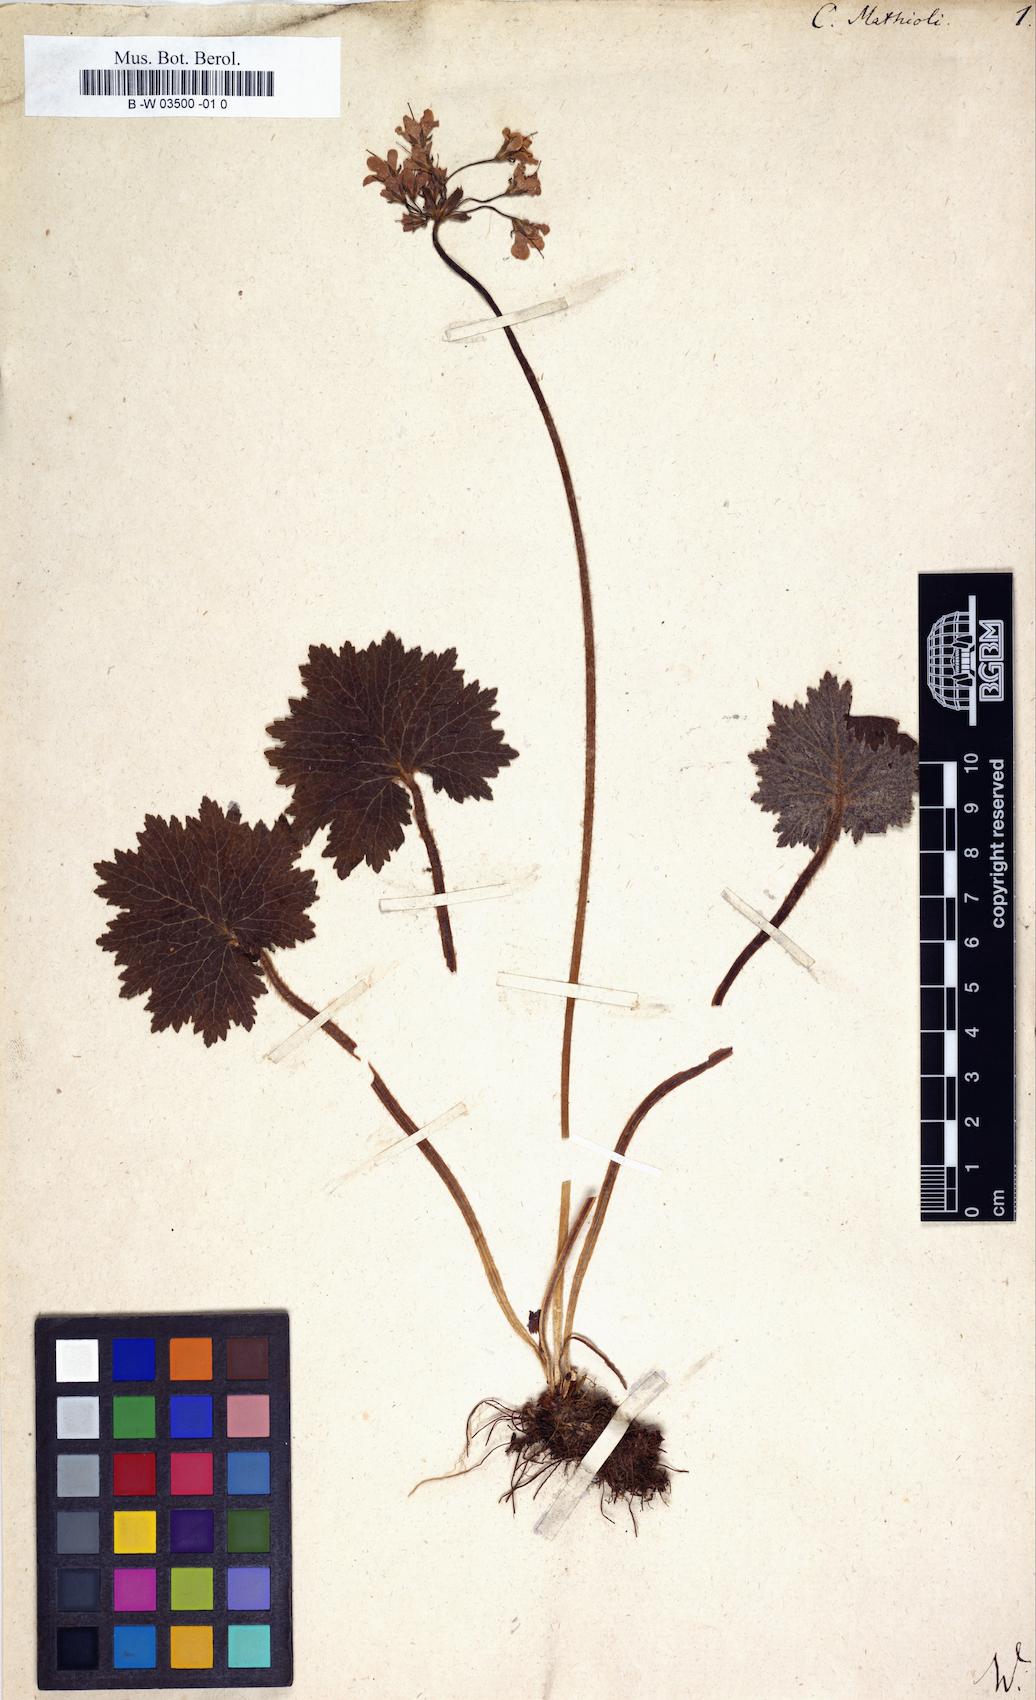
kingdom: Plantae
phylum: Tracheophyta
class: Magnoliopsida
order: Ericales
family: Primulaceae
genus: Primula
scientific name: Primula matthioli
